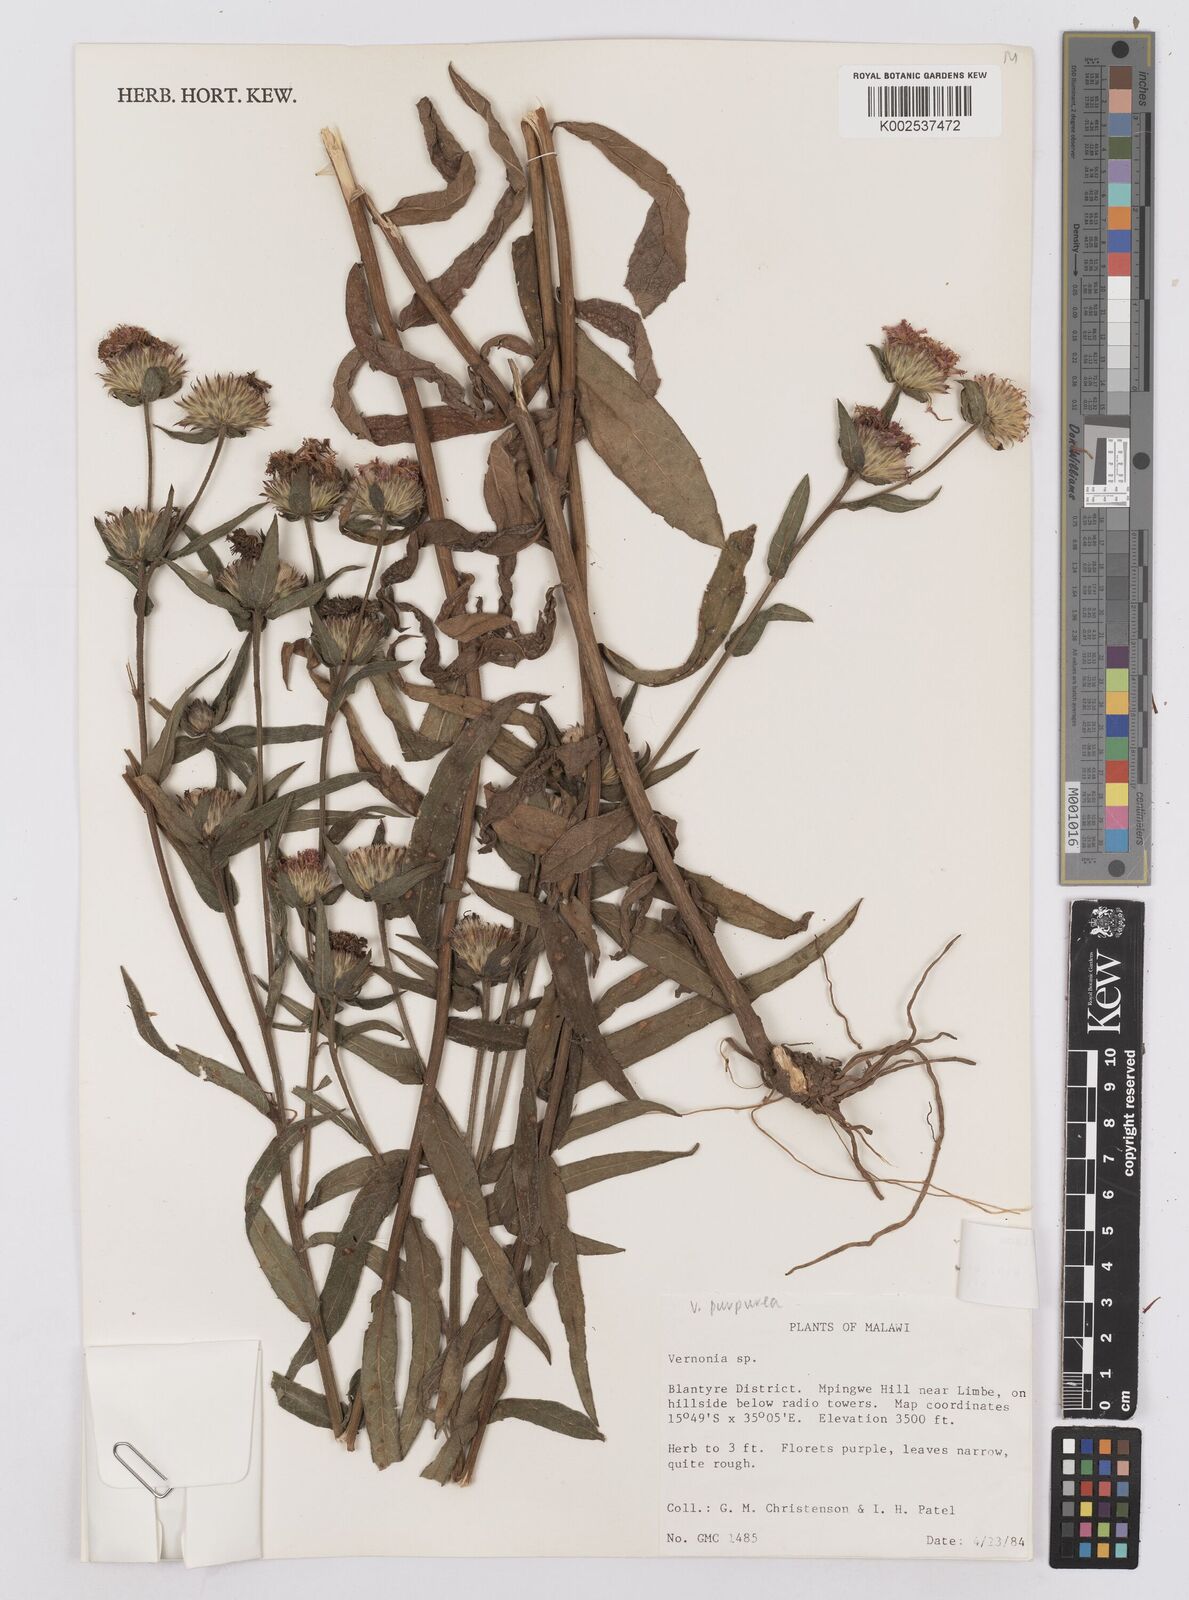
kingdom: Plantae
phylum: Tracheophyta
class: Magnoliopsida
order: Asterales
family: Asteraceae
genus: Nothovernonia
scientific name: Nothovernonia purpurea
